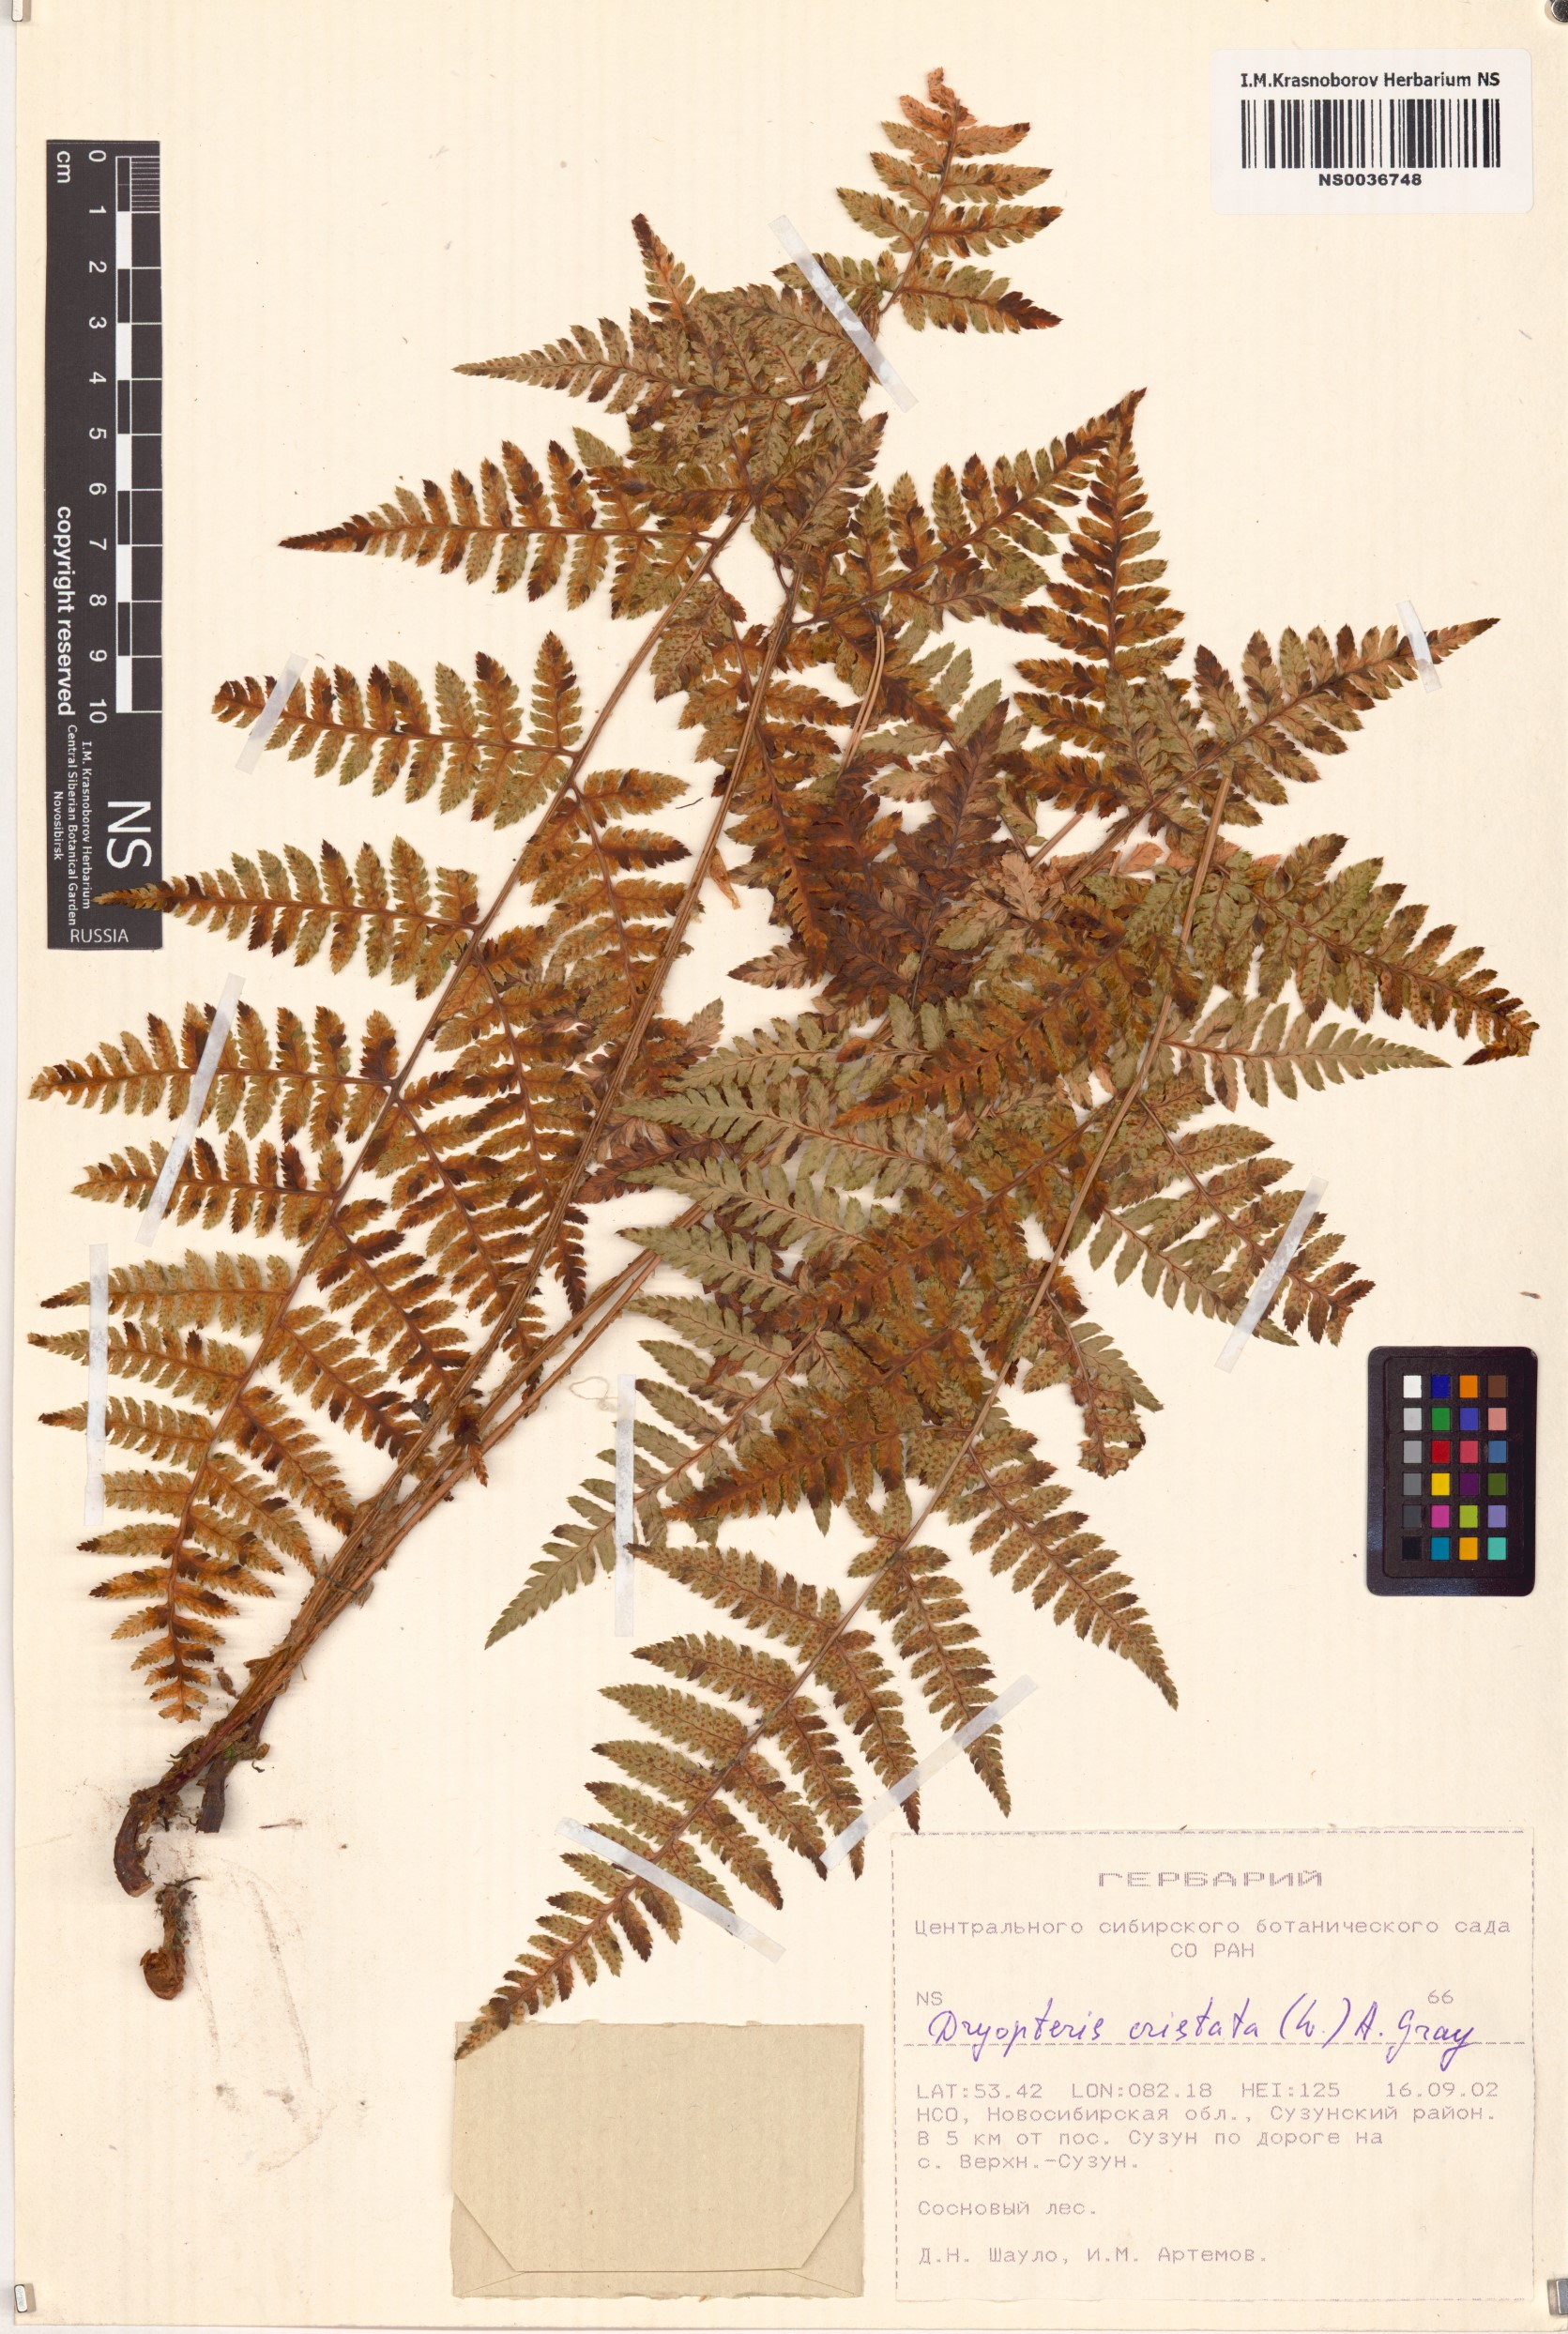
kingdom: Plantae
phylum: Tracheophyta
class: Polypodiopsida
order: Polypodiales
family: Dryopteridaceae
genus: Dryopteris
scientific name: Dryopteris cristata
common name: Crested wood fern
